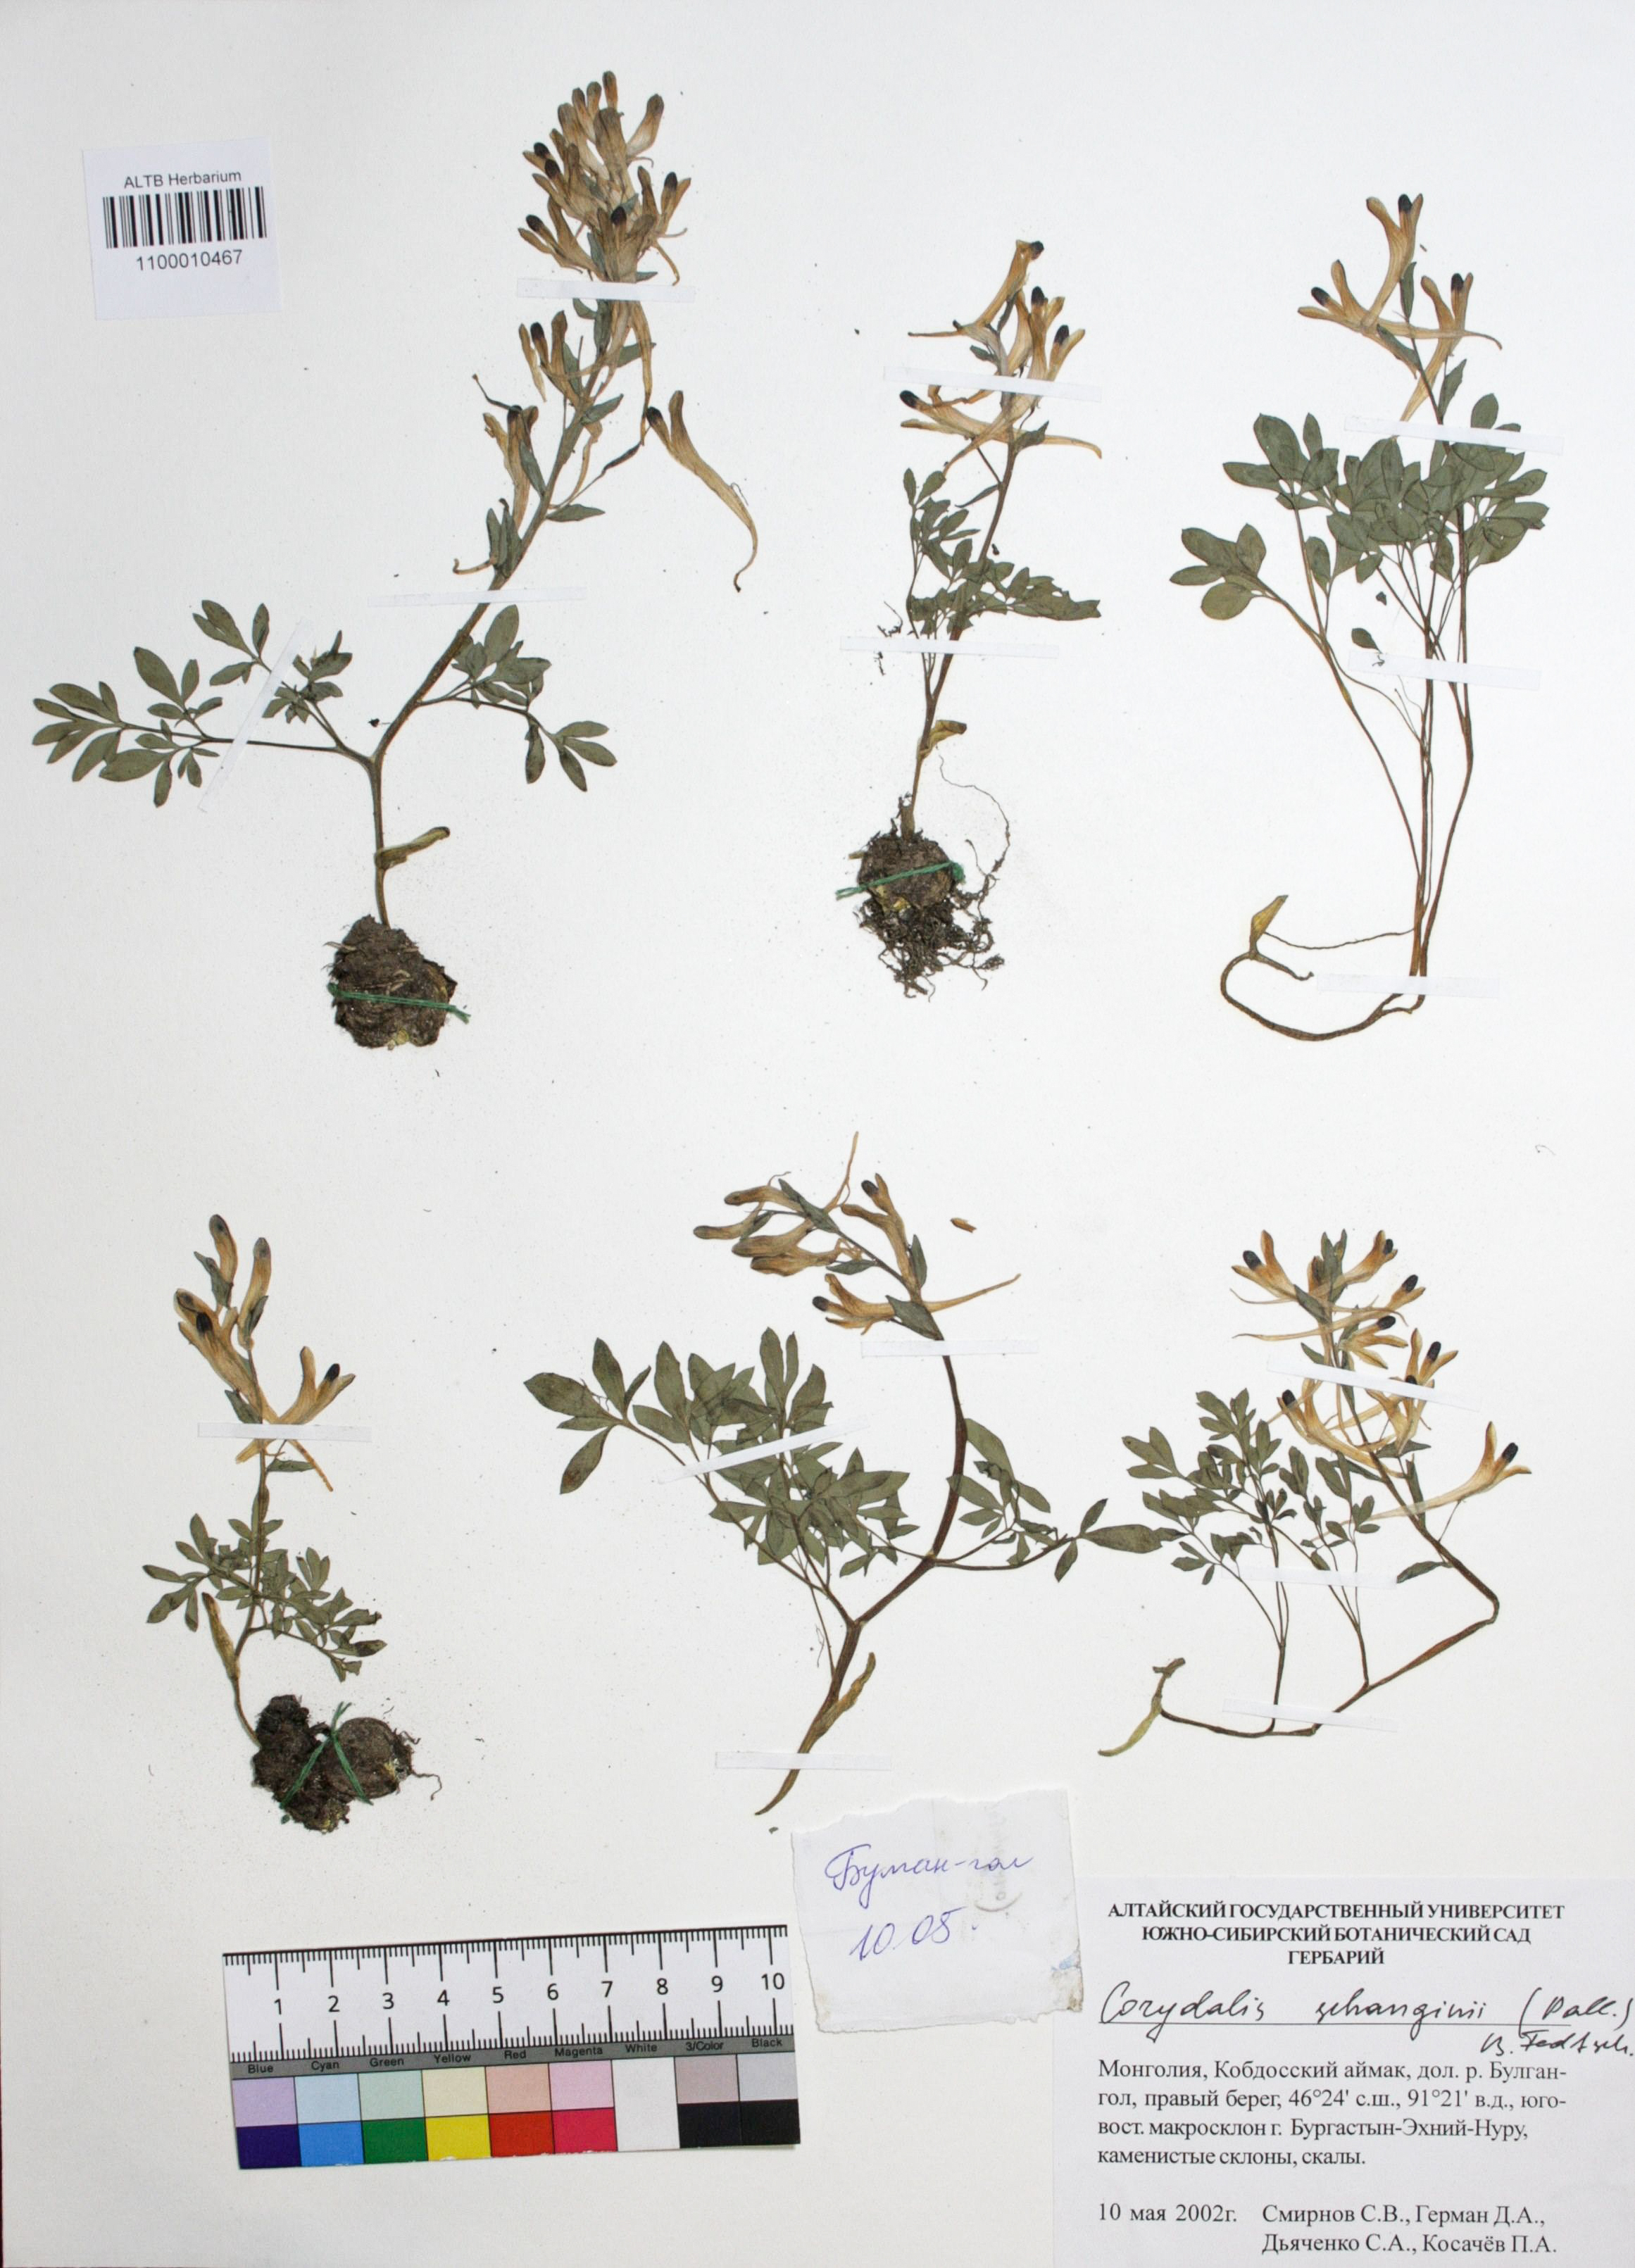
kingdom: Plantae
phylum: Tracheophyta
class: Magnoliopsida
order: Ranunculales
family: Papaveraceae
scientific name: Papaveraceae
